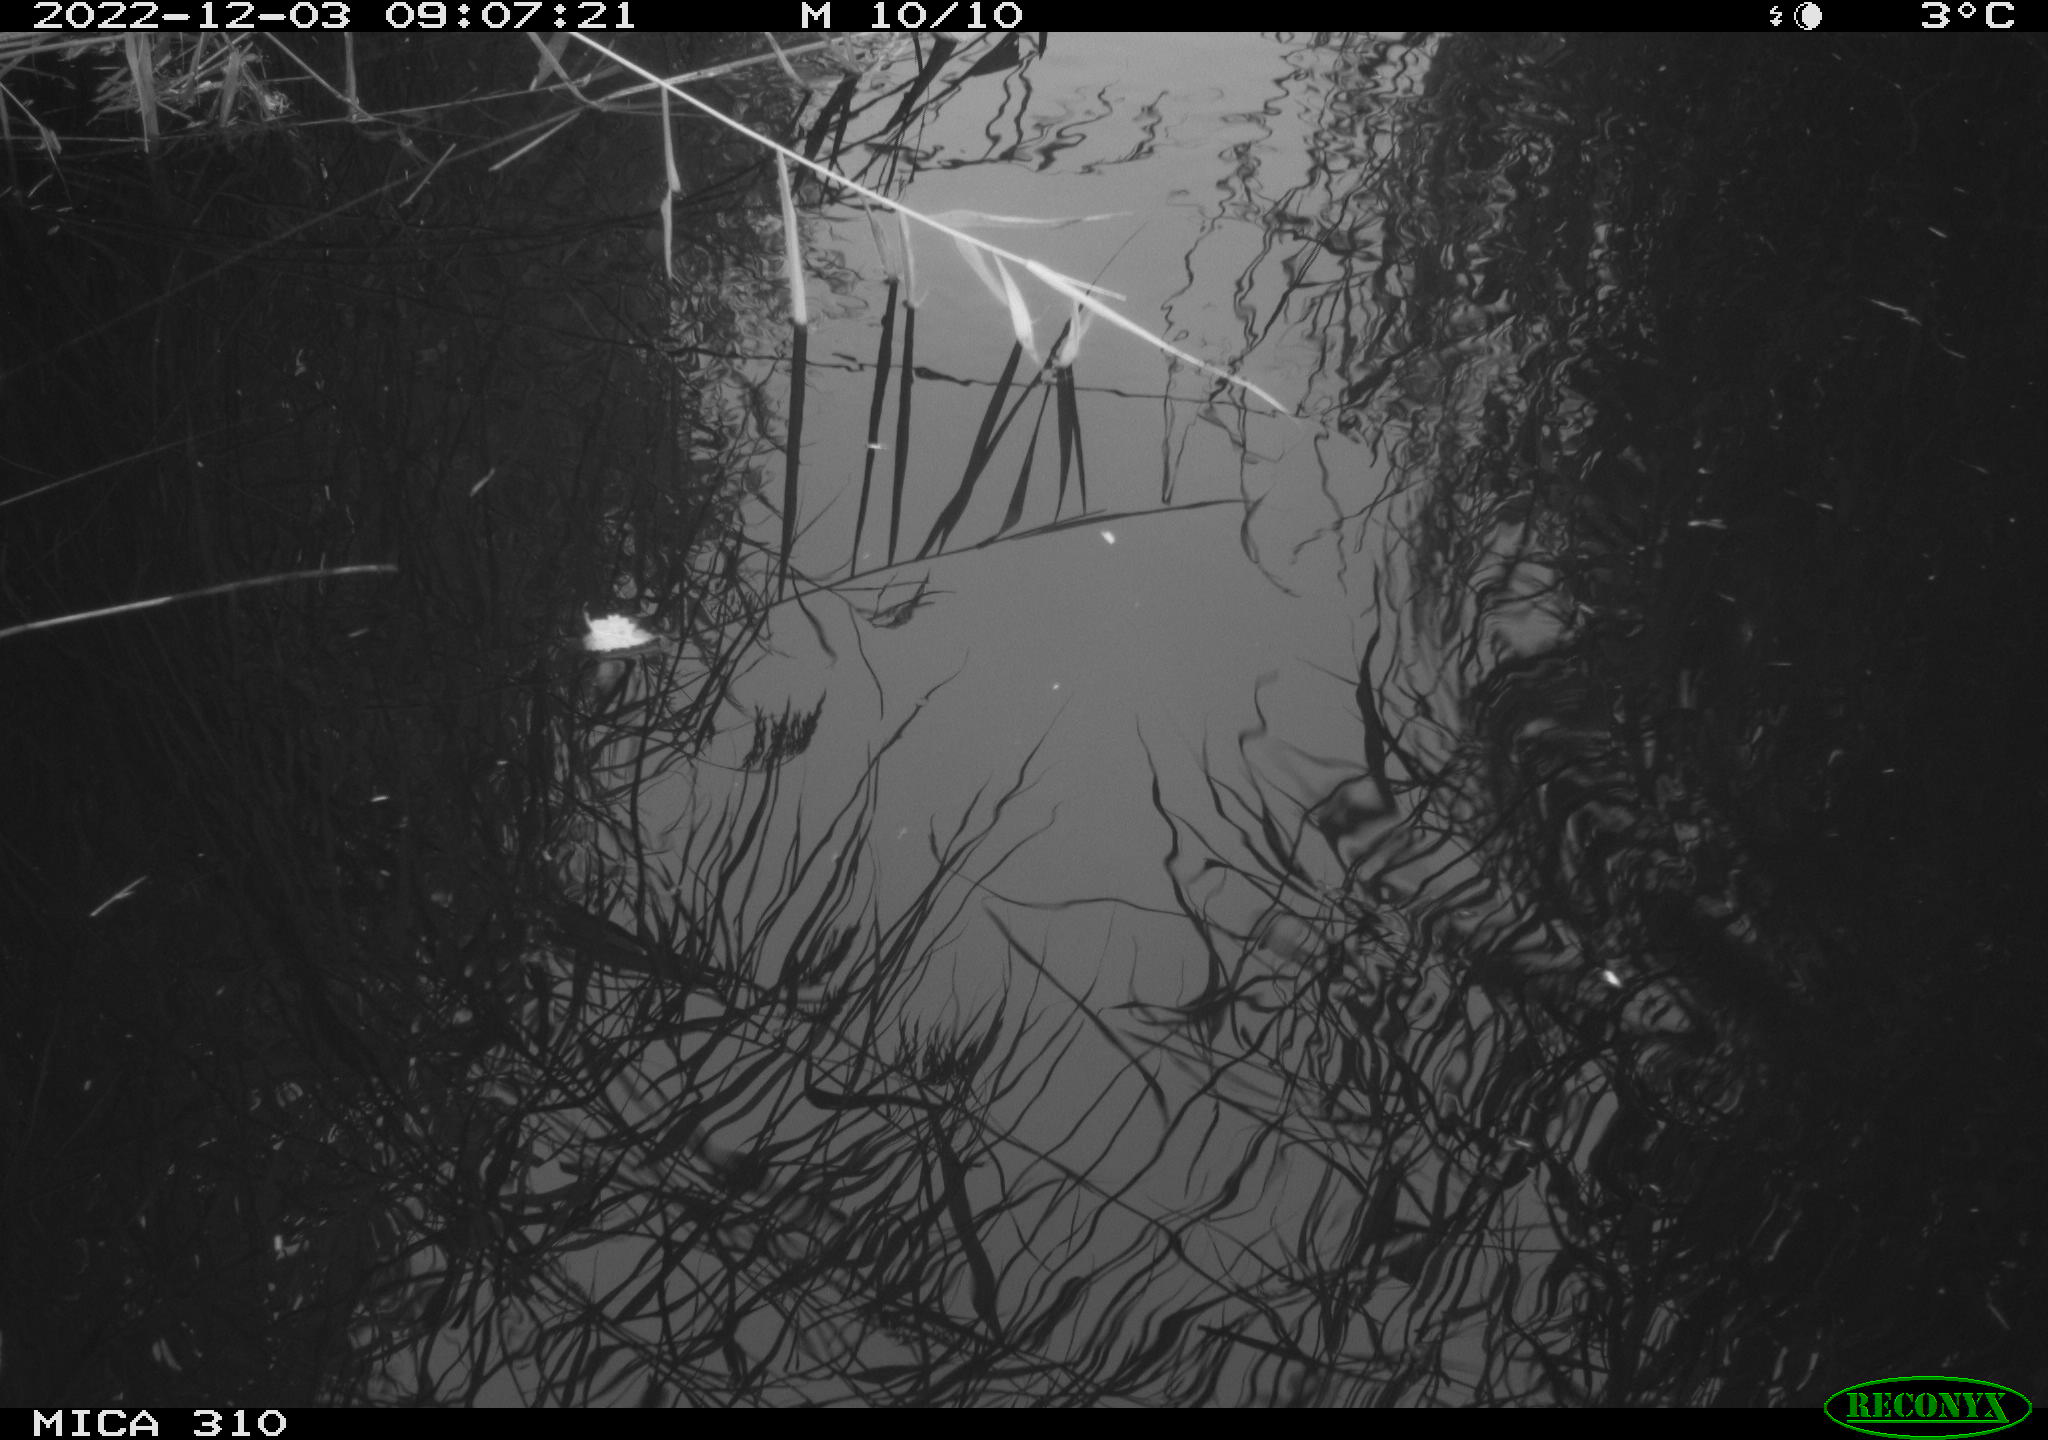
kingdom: Animalia
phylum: Chordata
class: Aves
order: Gruiformes
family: Rallidae
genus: Gallinula
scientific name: Gallinula chloropus
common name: Common moorhen
